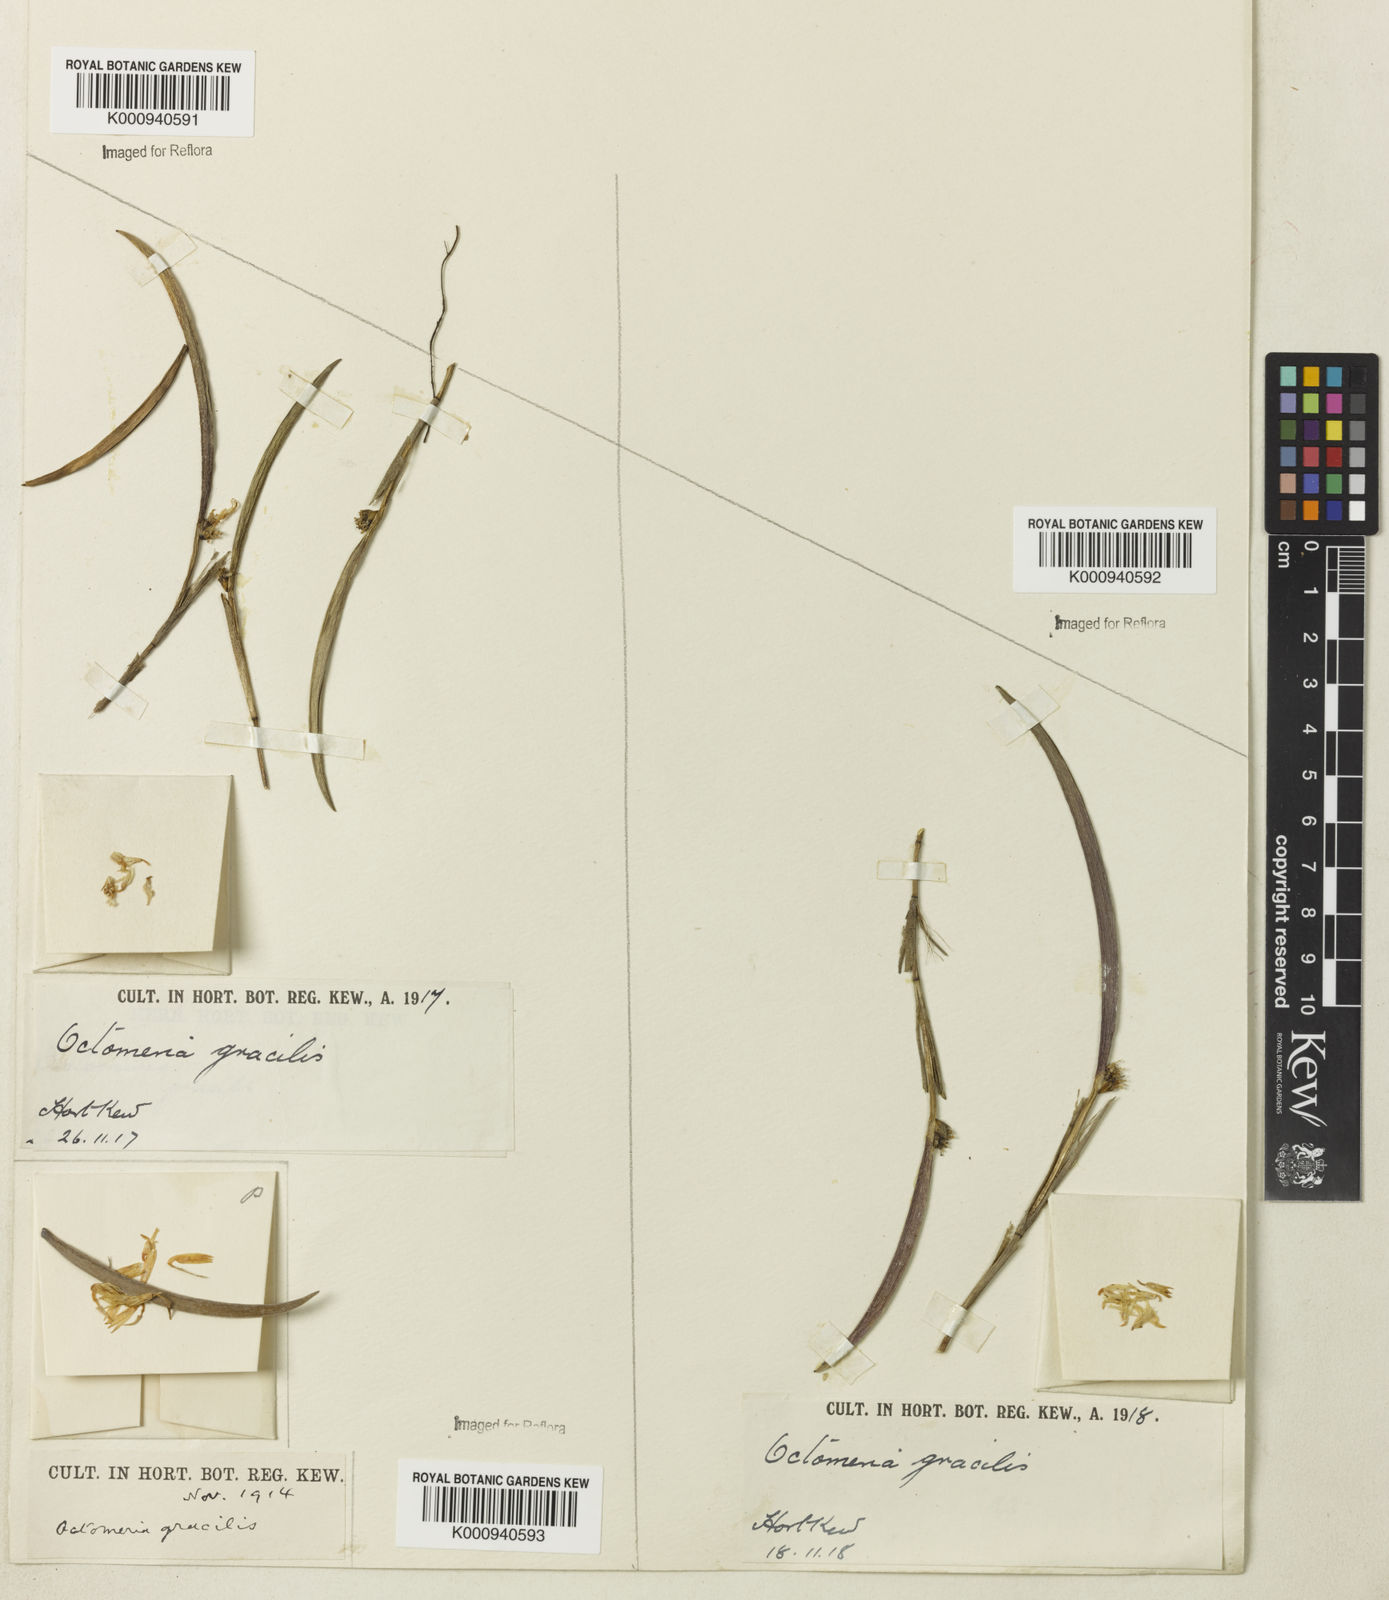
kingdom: Plantae
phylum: Tracheophyta
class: Liliopsida
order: Asparagales
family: Orchidaceae
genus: Octomeria
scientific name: Octomeria rodriguesii
